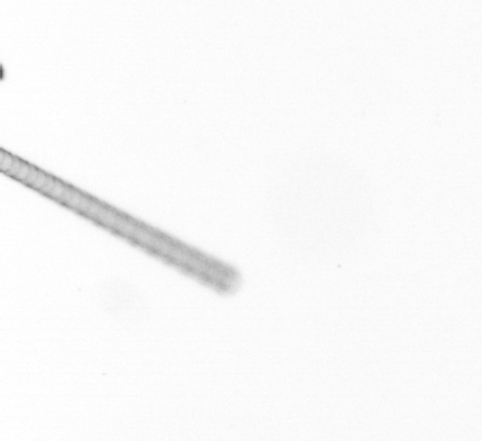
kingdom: Chromista
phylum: Ochrophyta
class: Bacillariophyceae
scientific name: Bacillariophyceae
